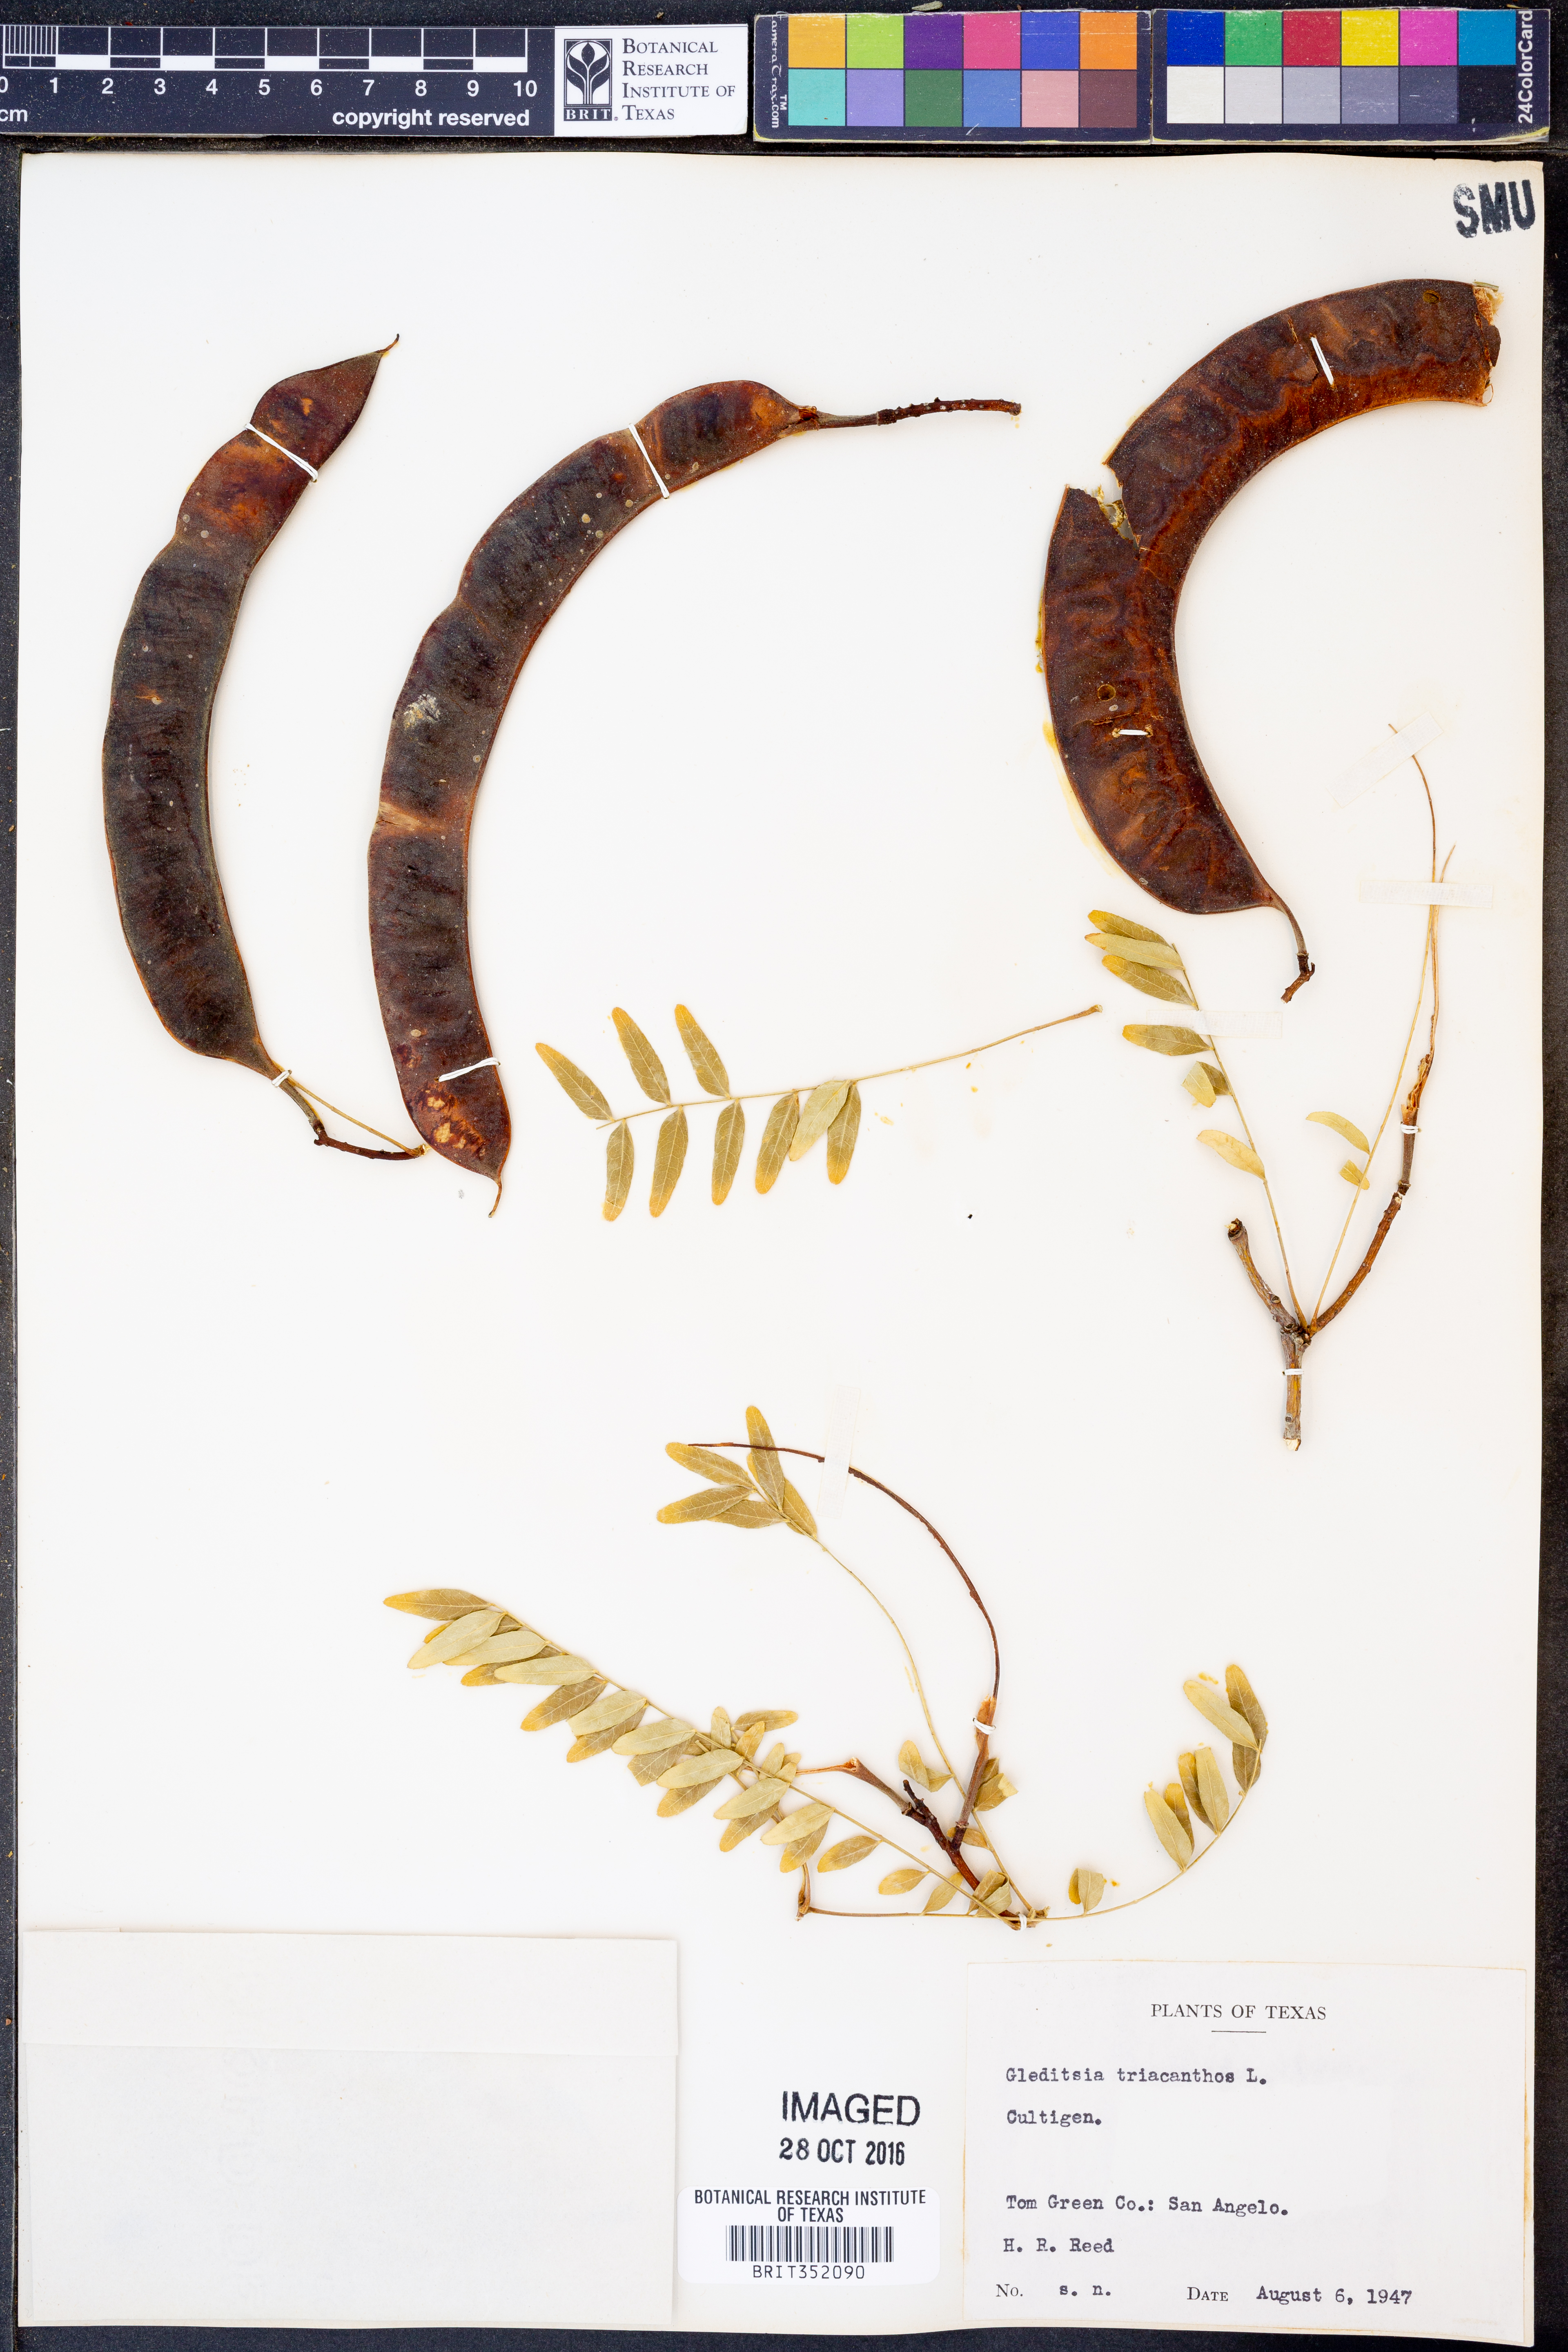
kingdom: Plantae
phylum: Tracheophyta
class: Magnoliopsida
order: Fabales
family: Fabaceae
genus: Gleditsia
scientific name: Gleditsia triacanthos
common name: Common honeylocust
